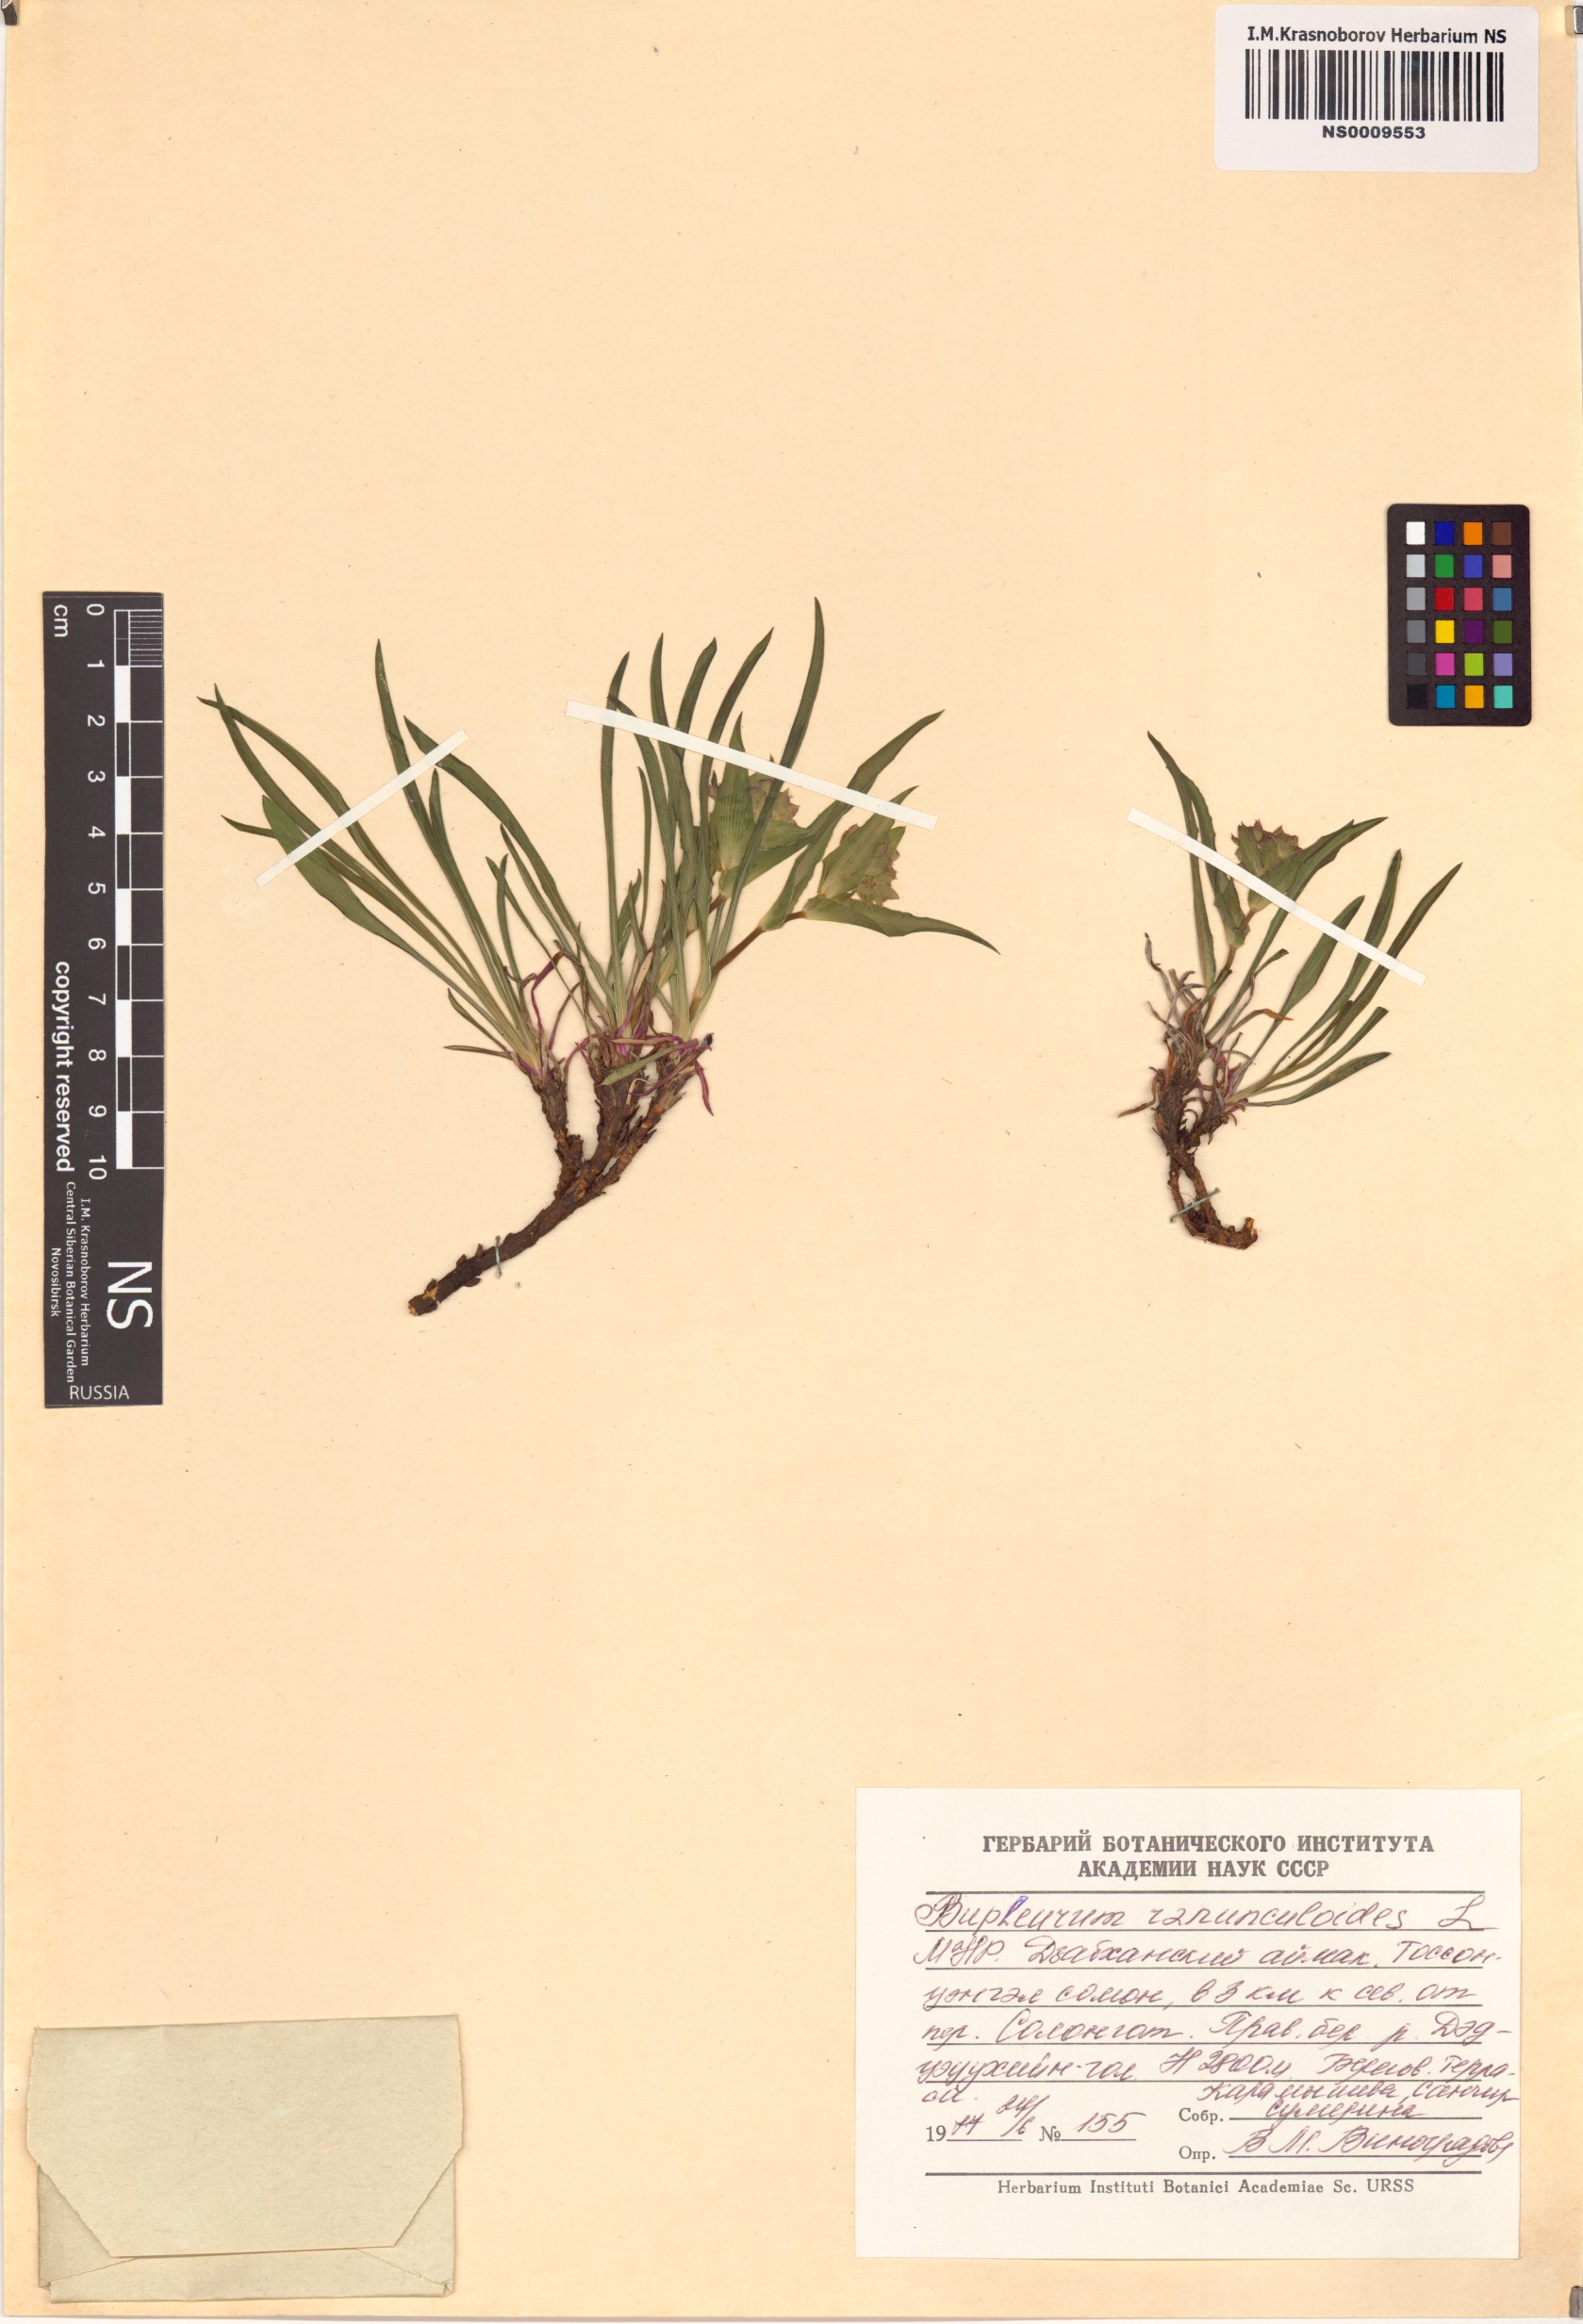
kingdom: Plantae
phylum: Tracheophyta
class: Magnoliopsida
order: Apiales
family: Apiaceae
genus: Bupleurum
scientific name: Bupleurum ranunculoides
